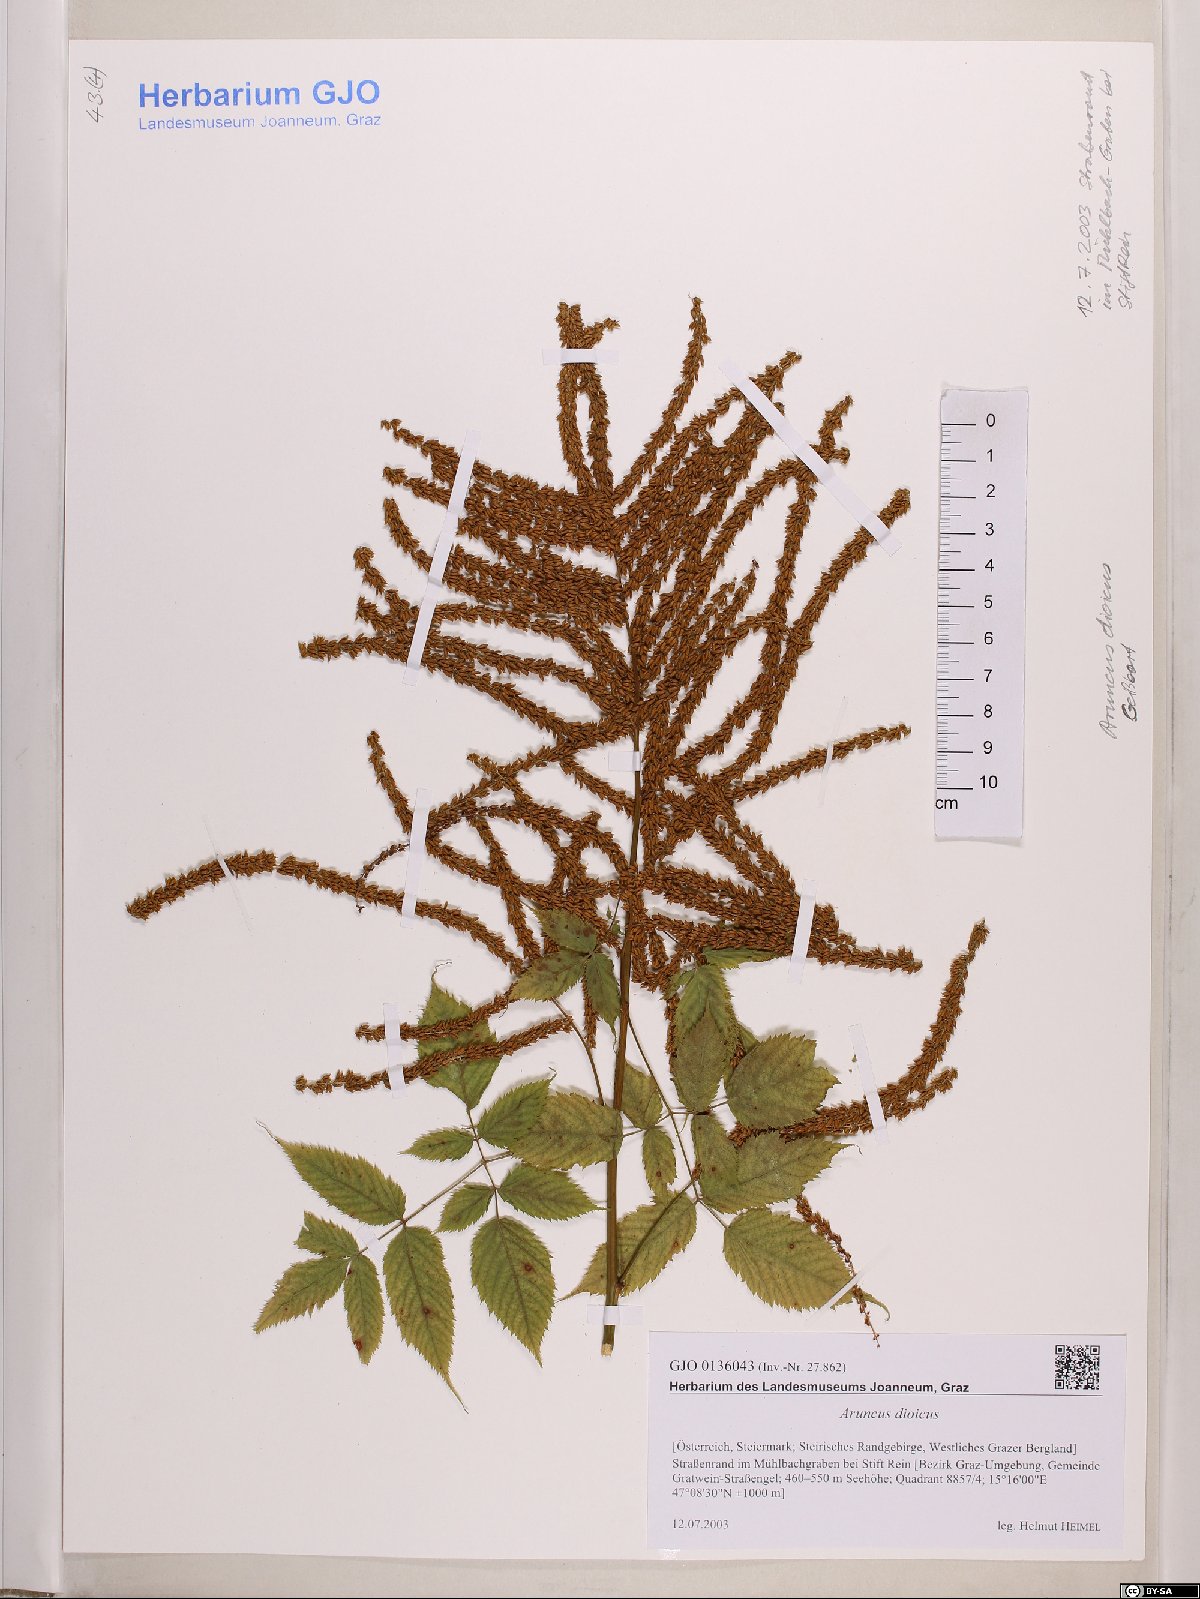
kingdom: Plantae
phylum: Tracheophyta
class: Magnoliopsida
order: Rosales
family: Rosaceae
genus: Aruncus
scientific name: Aruncus dioicus
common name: Buck's-beard
